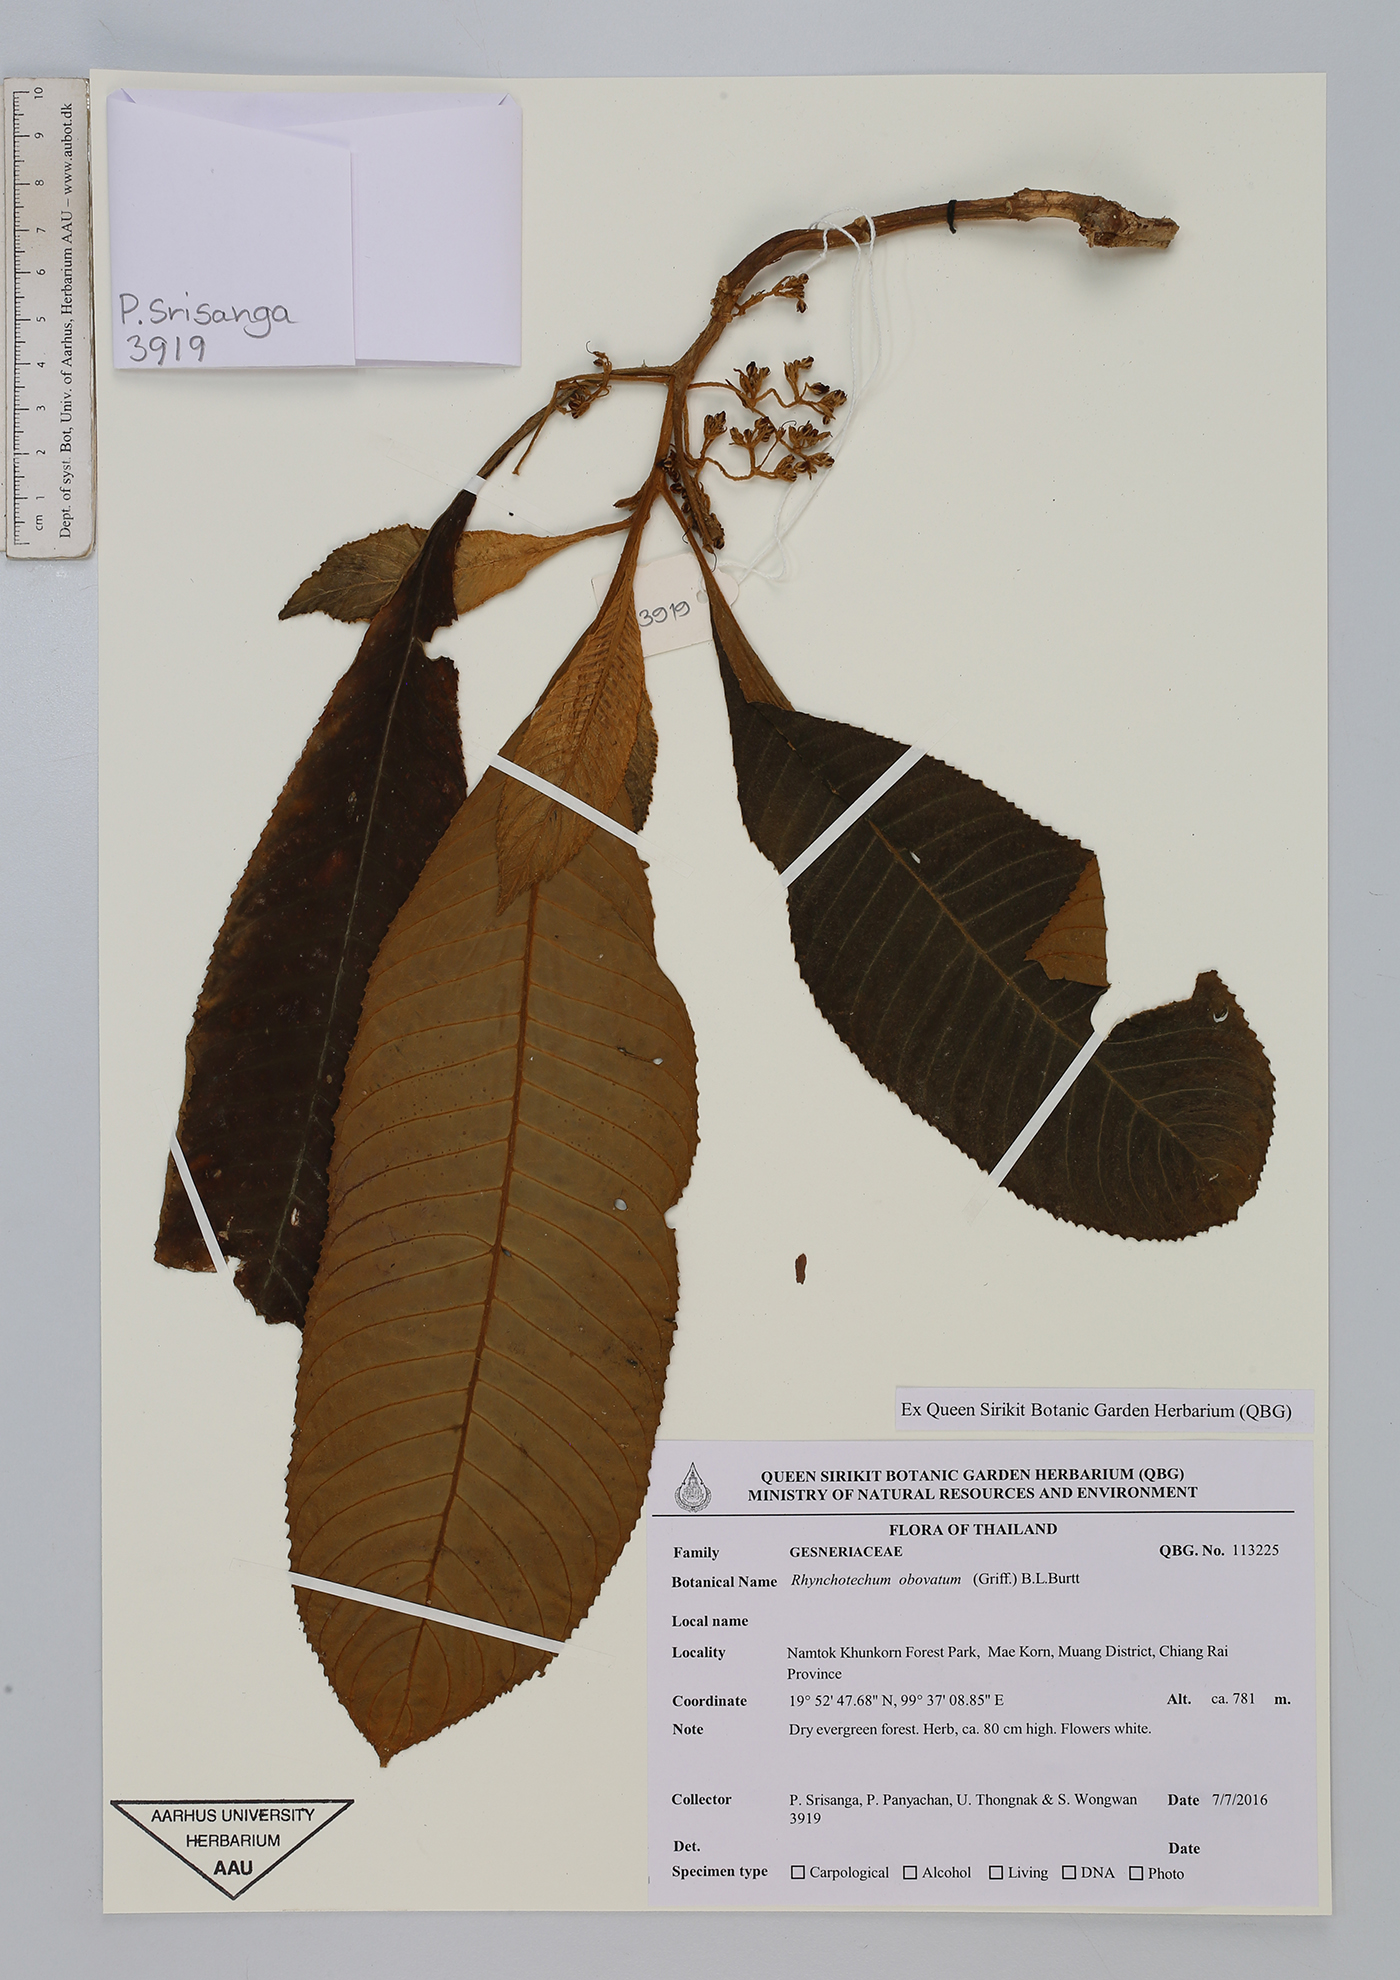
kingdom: Plantae
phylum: Tracheophyta
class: Magnoliopsida
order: Lamiales
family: Gesneriaceae
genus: Rhynchotechum
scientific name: Rhynchotechum obovatum
